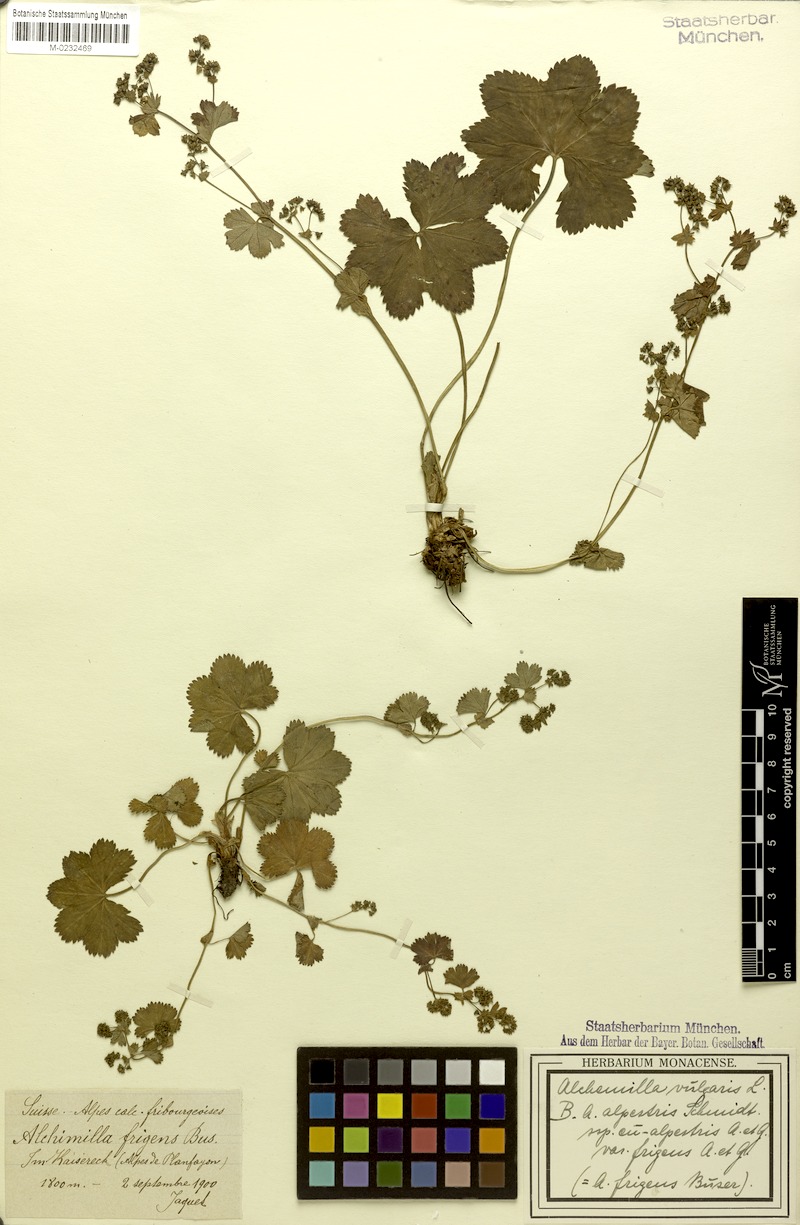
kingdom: Plantae
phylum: Tracheophyta
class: Magnoliopsida
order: Rosales
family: Rosaceae
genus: Alchemilla
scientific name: Alchemilla frigens
